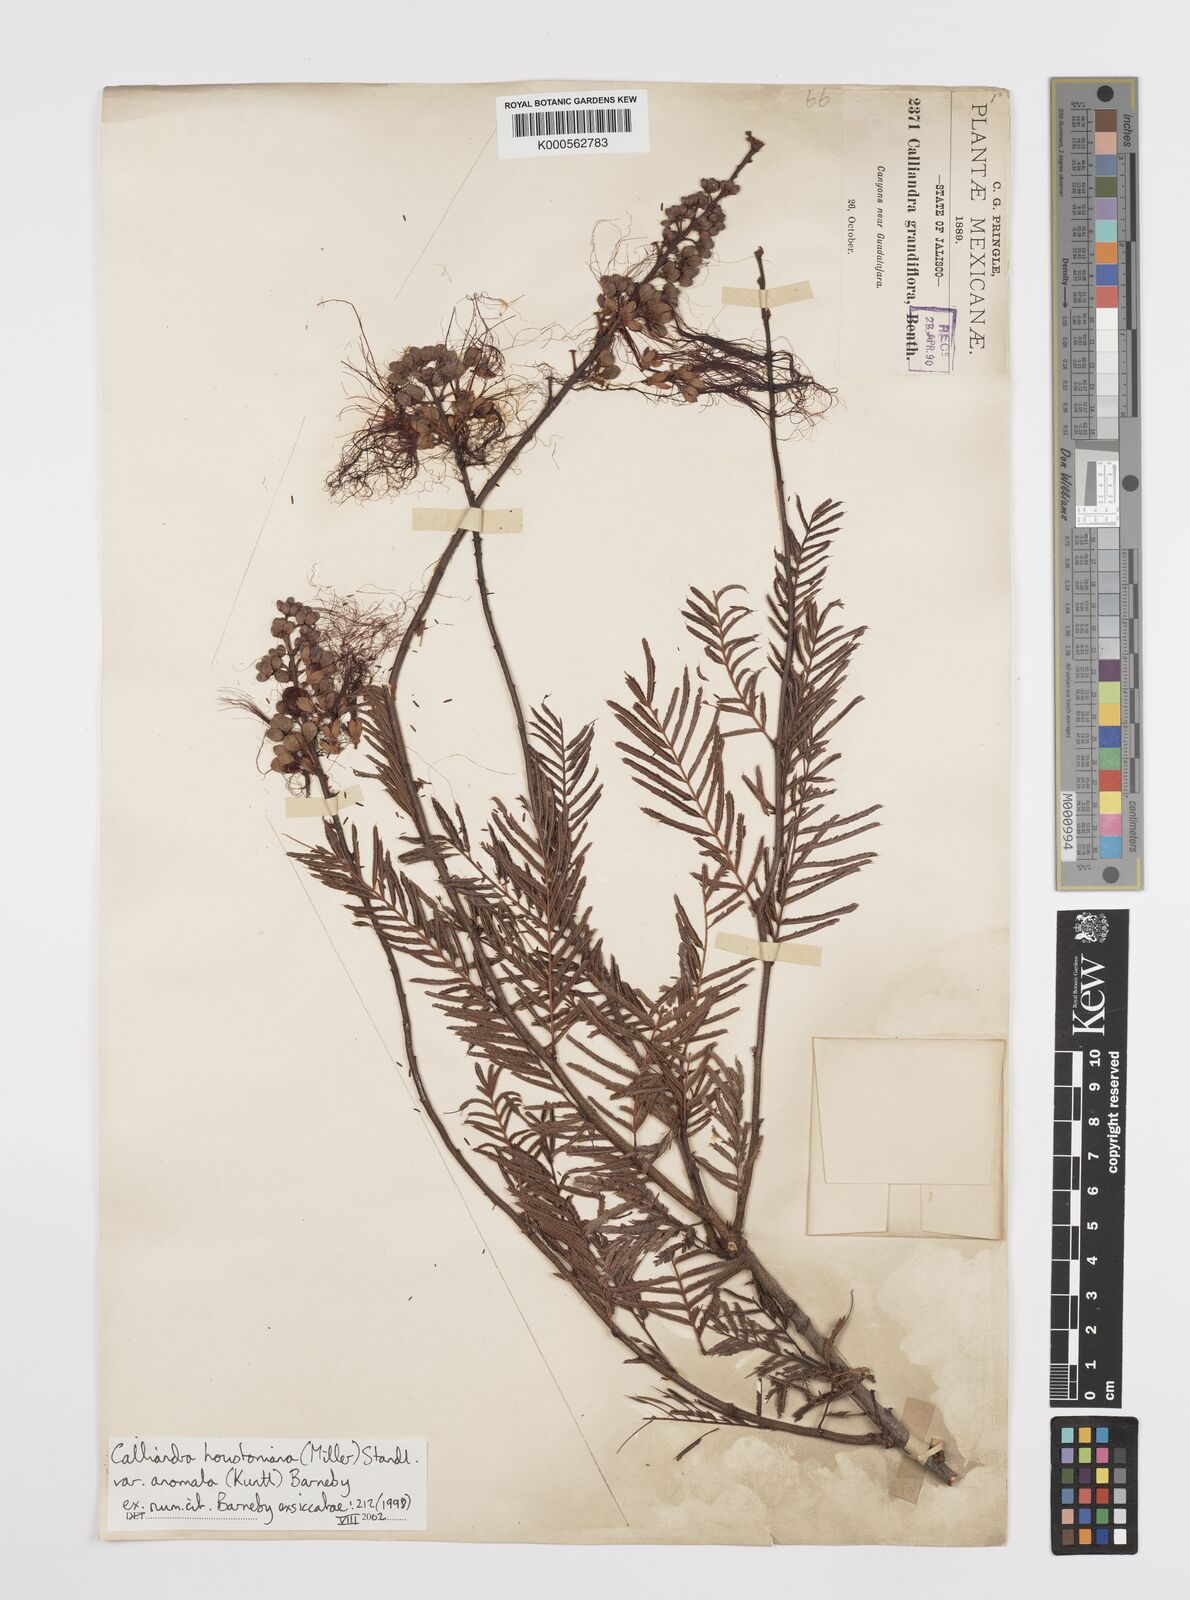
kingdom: Plantae
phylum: Tracheophyta
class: Magnoliopsida
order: Fabales
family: Fabaceae
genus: Calliandra
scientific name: Calliandra houstoniana
